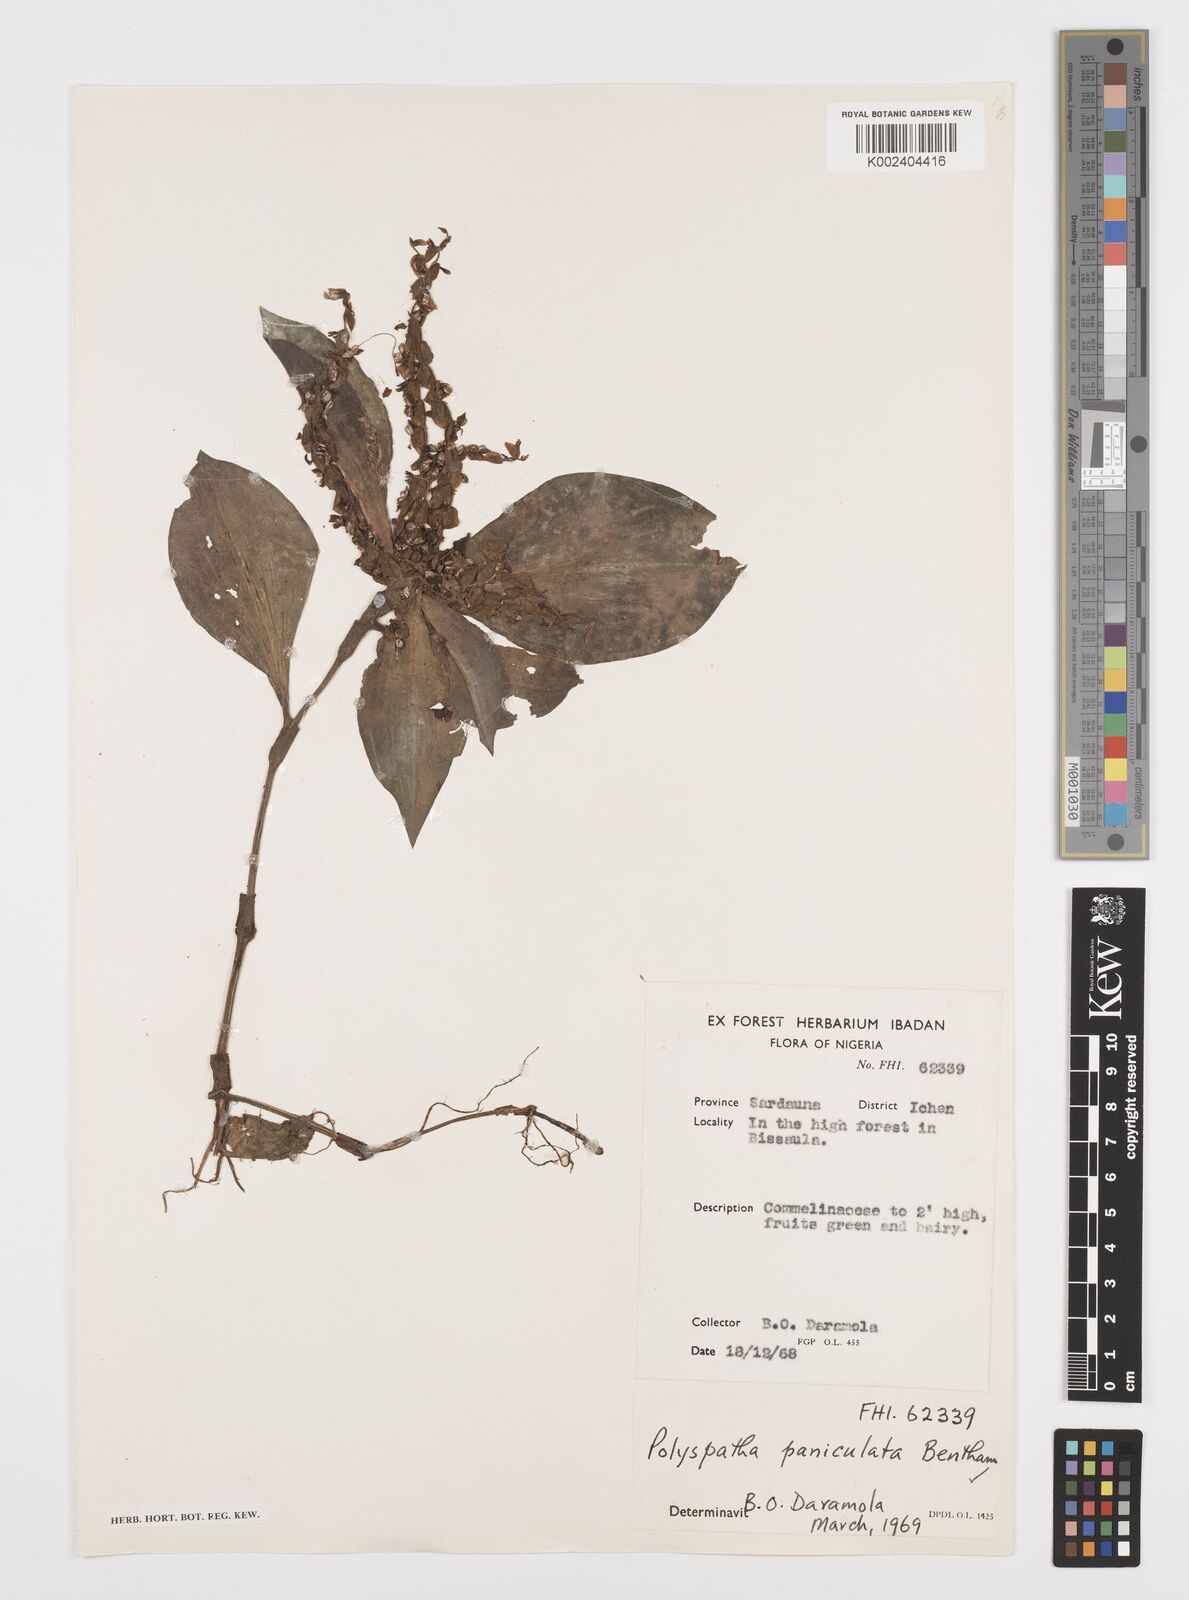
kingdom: Plantae
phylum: Tracheophyta
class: Liliopsida
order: Commelinales
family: Commelinaceae
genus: Polyspatha
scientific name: Polyspatha paniculata
